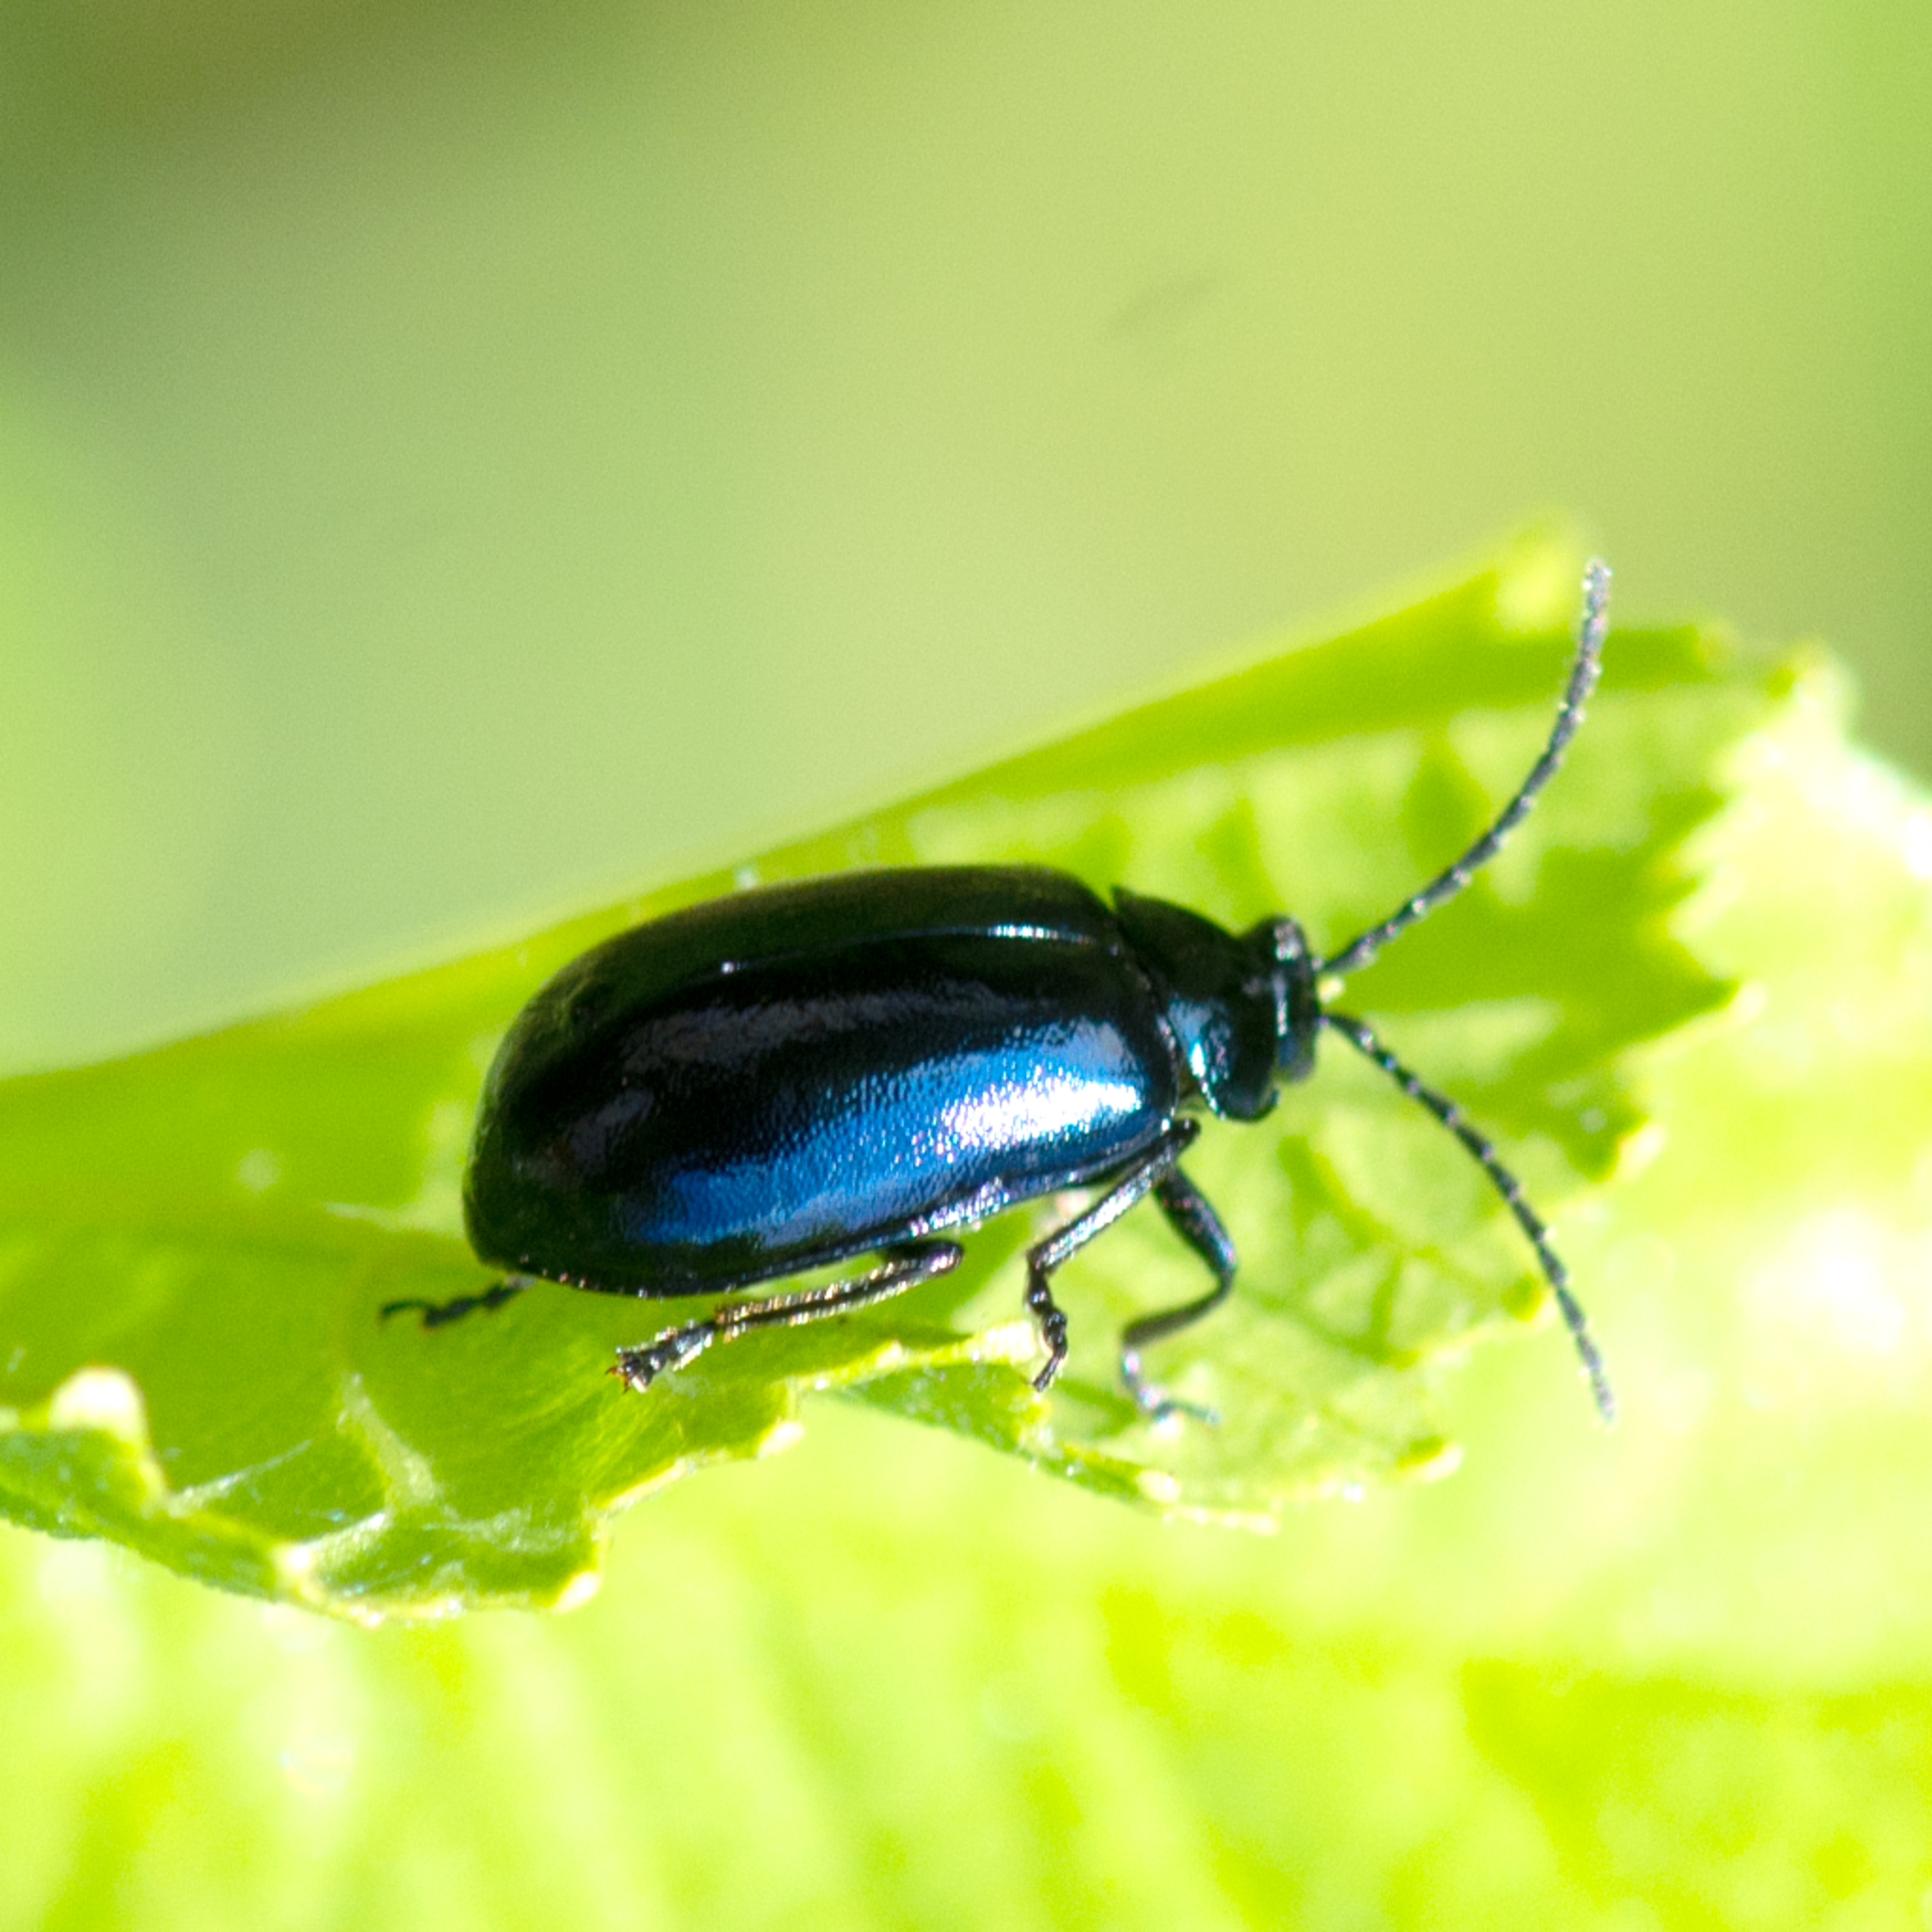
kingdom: Animalia
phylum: Arthropoda
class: Insecta
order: Coleoptera
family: Chrysomelidae
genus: Agelastica
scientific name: Agelastica alni
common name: Ellebladbille
